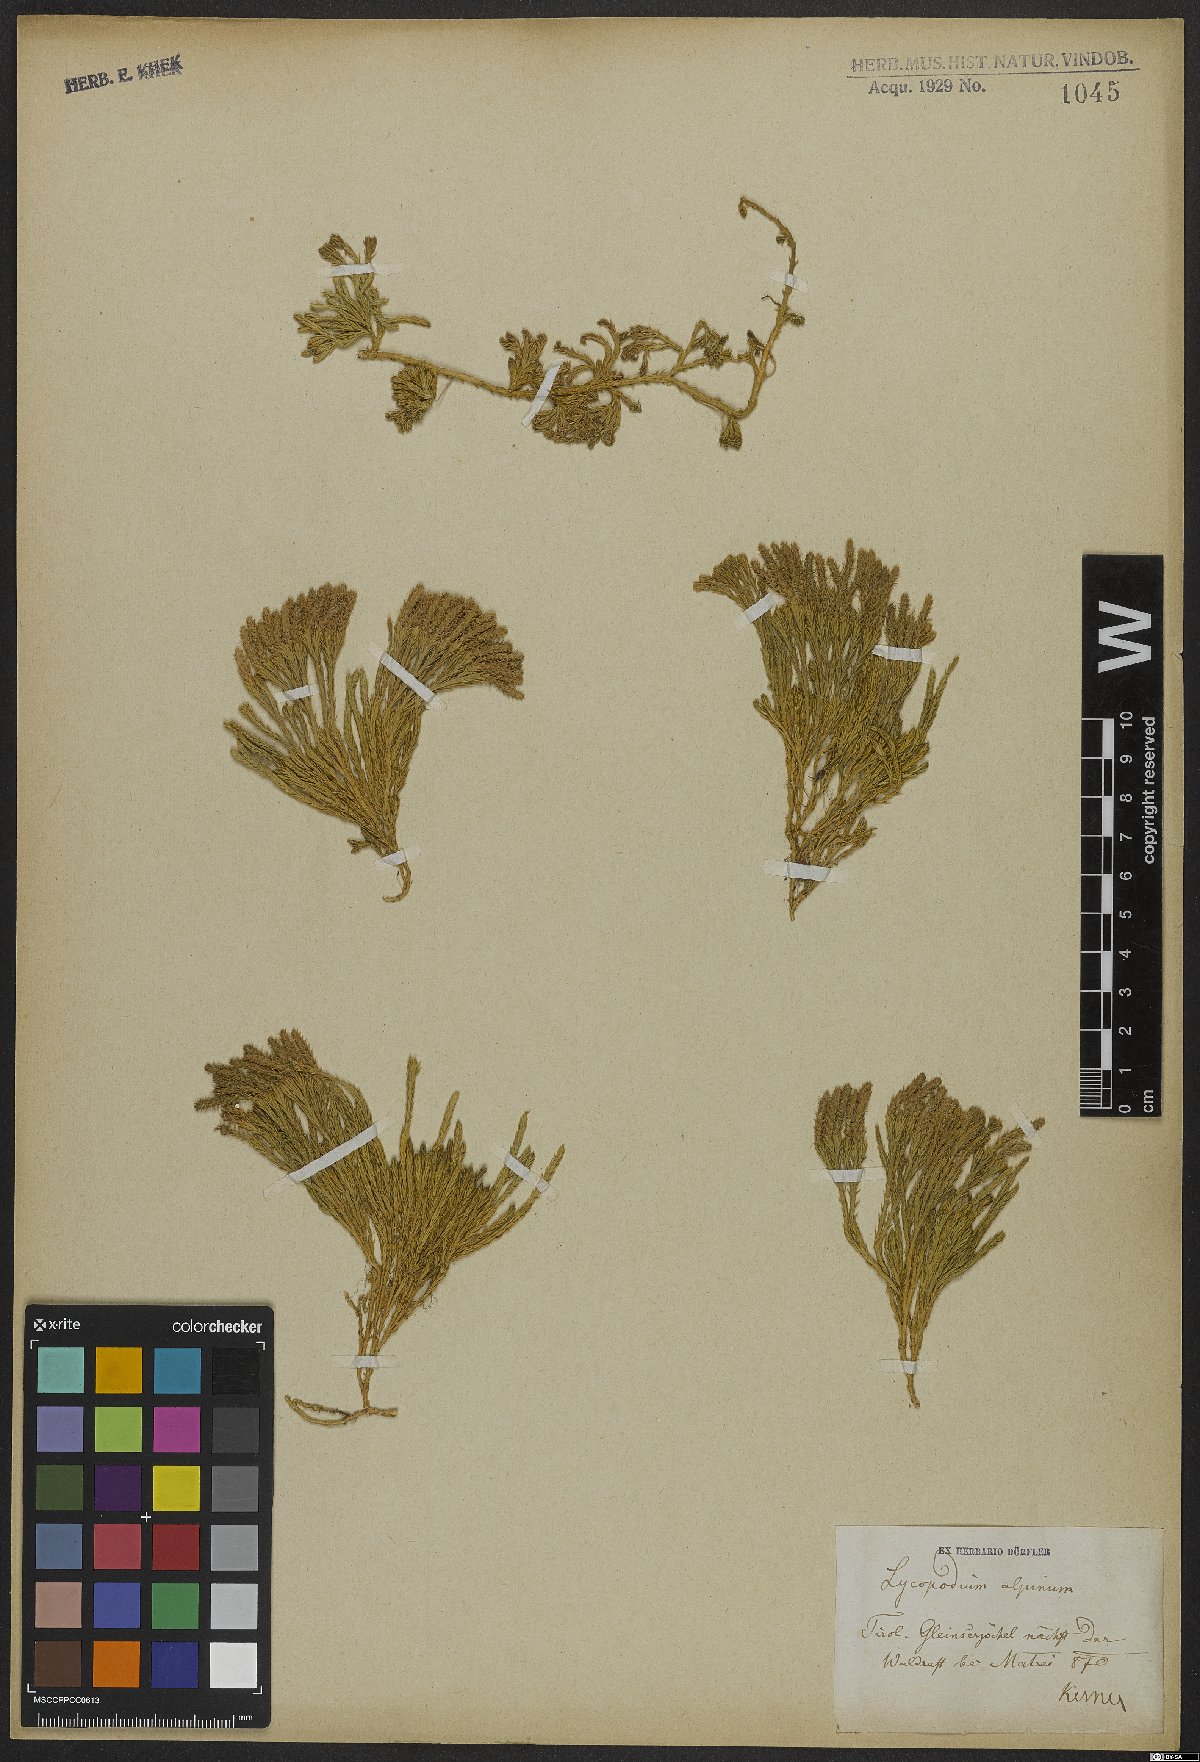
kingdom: Plantae
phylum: Tracheophyta
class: Lycopodiopsida
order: Lycopodiales
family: Lycopodiaceae
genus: Diphasiastrum
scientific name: Diphasiastrum alpinum
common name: Alpine clubmoss
